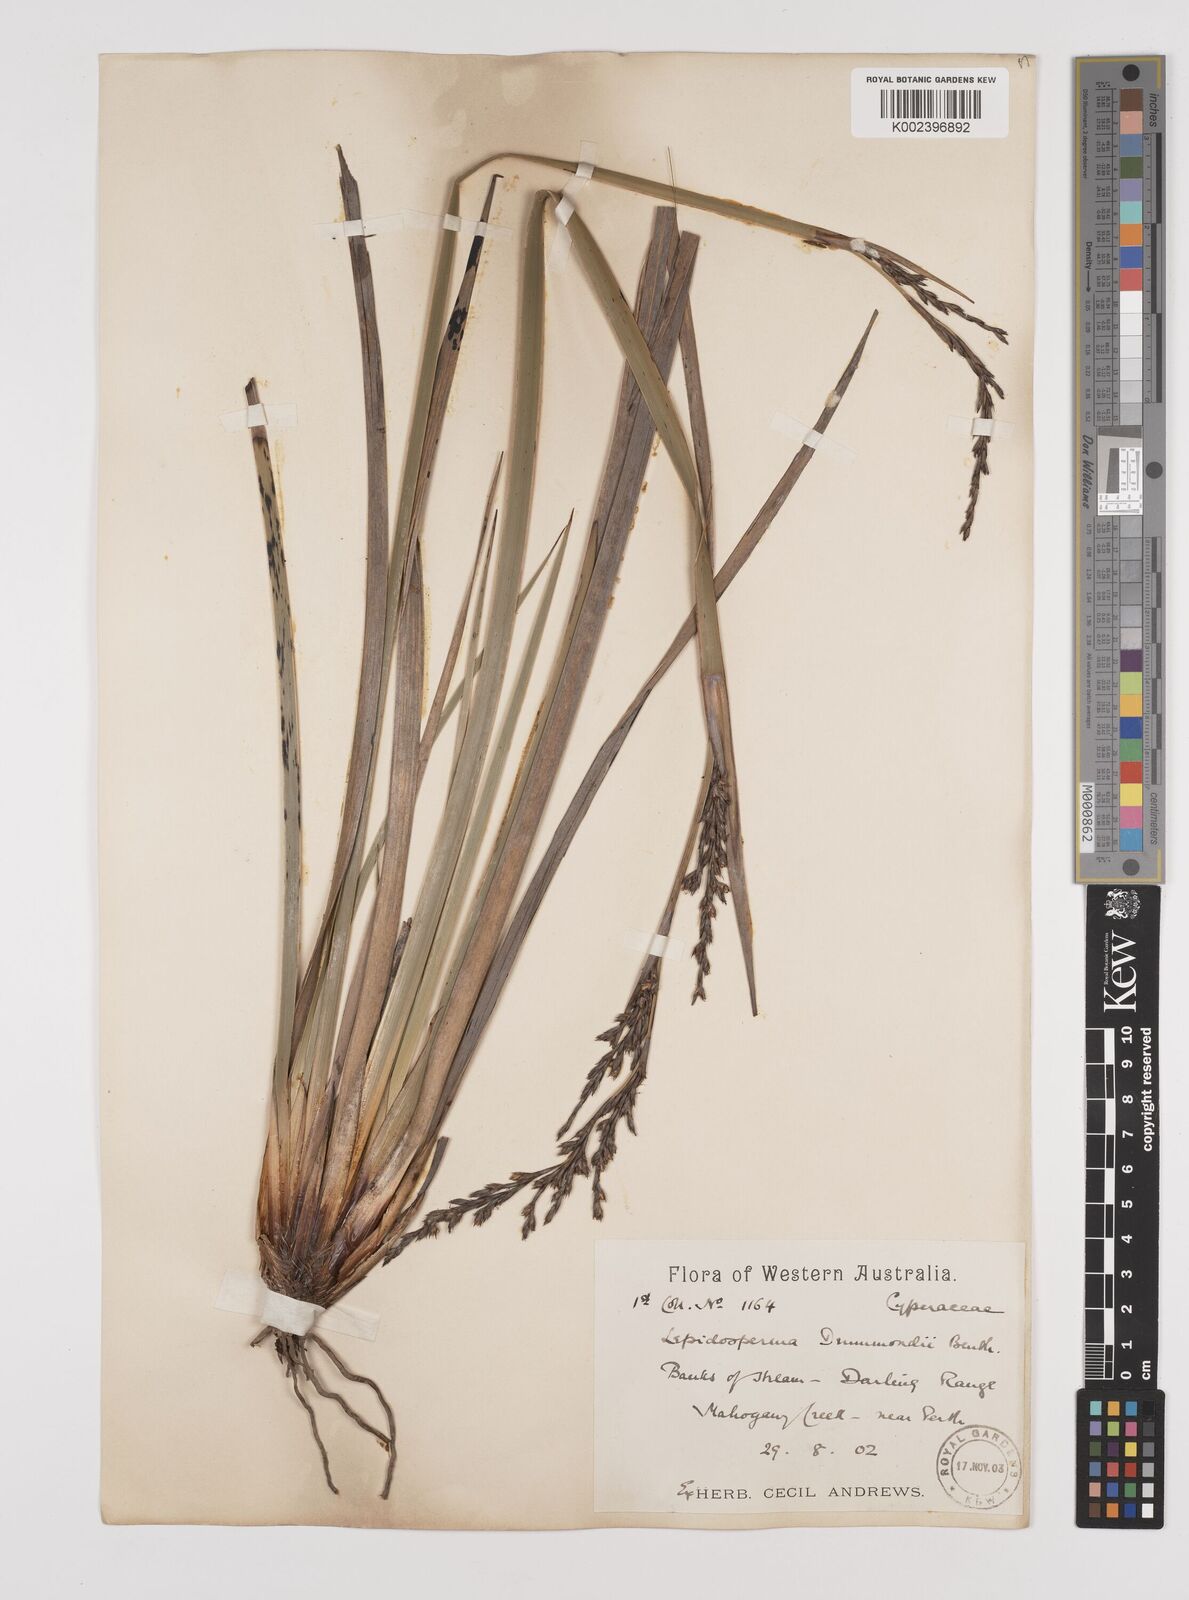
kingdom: Plantae
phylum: Tracheophyta
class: Liliopsida
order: Poales
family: Cyperaceae
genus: Lepidosperma
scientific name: Lepidosperma drummondii
